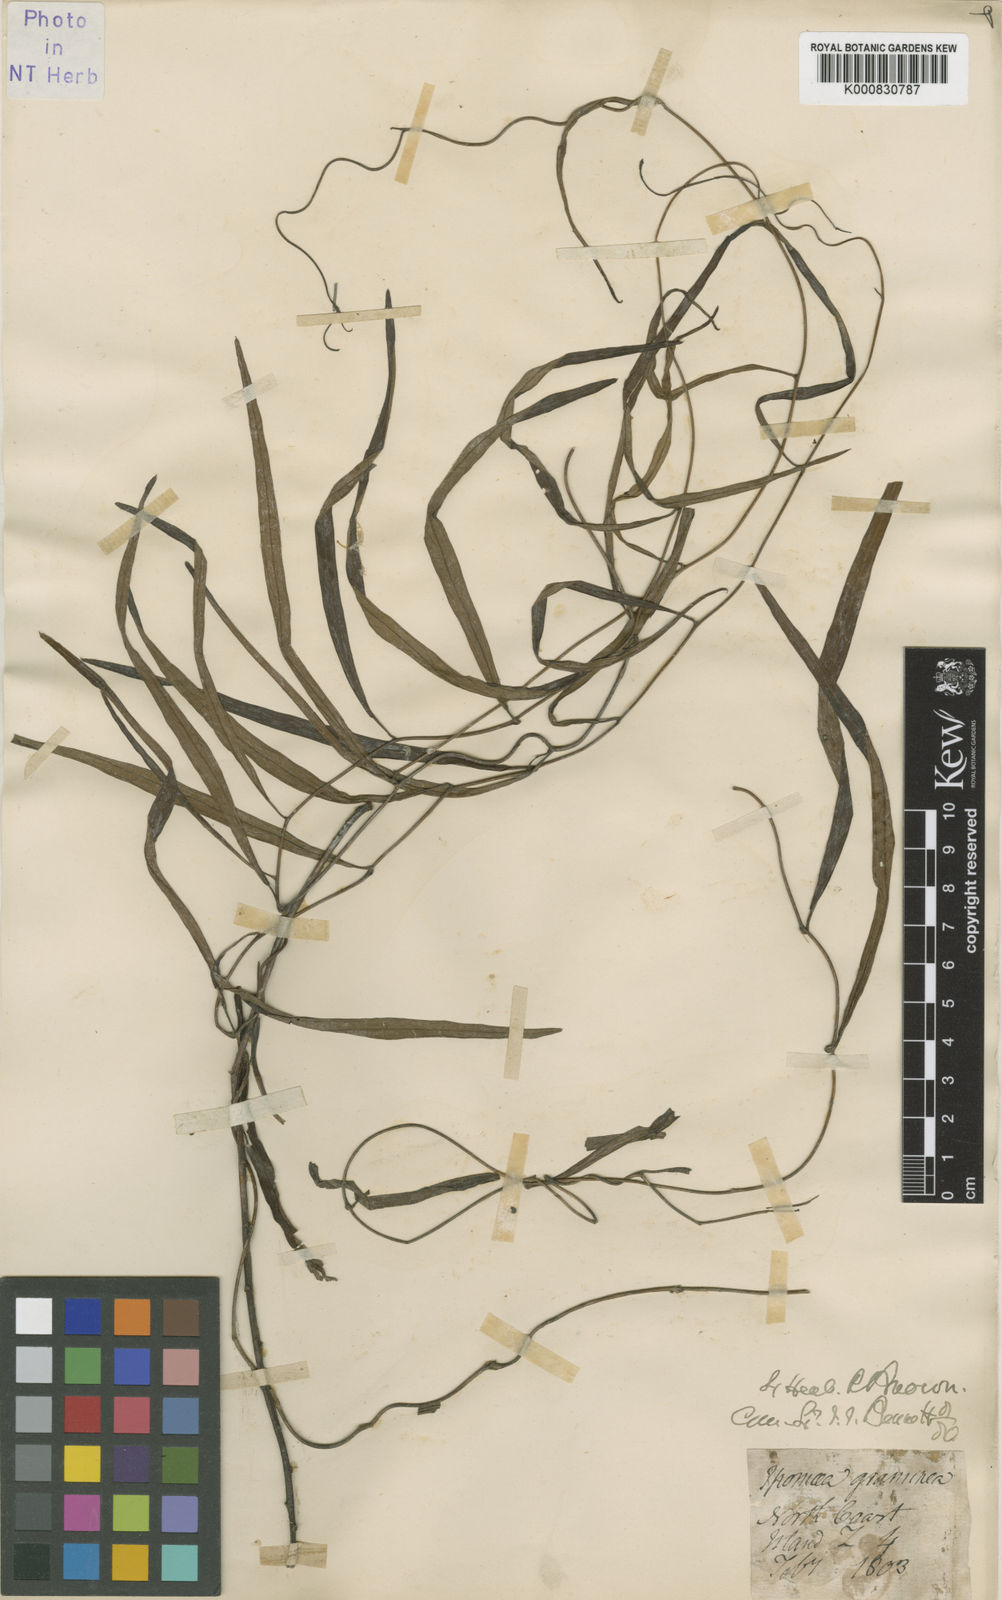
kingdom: Plantae
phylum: Tracheophyta
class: Magnoliopsida
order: Solanales
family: Convolvulaceae
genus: Ipomoea
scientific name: Ipomoea graminea
